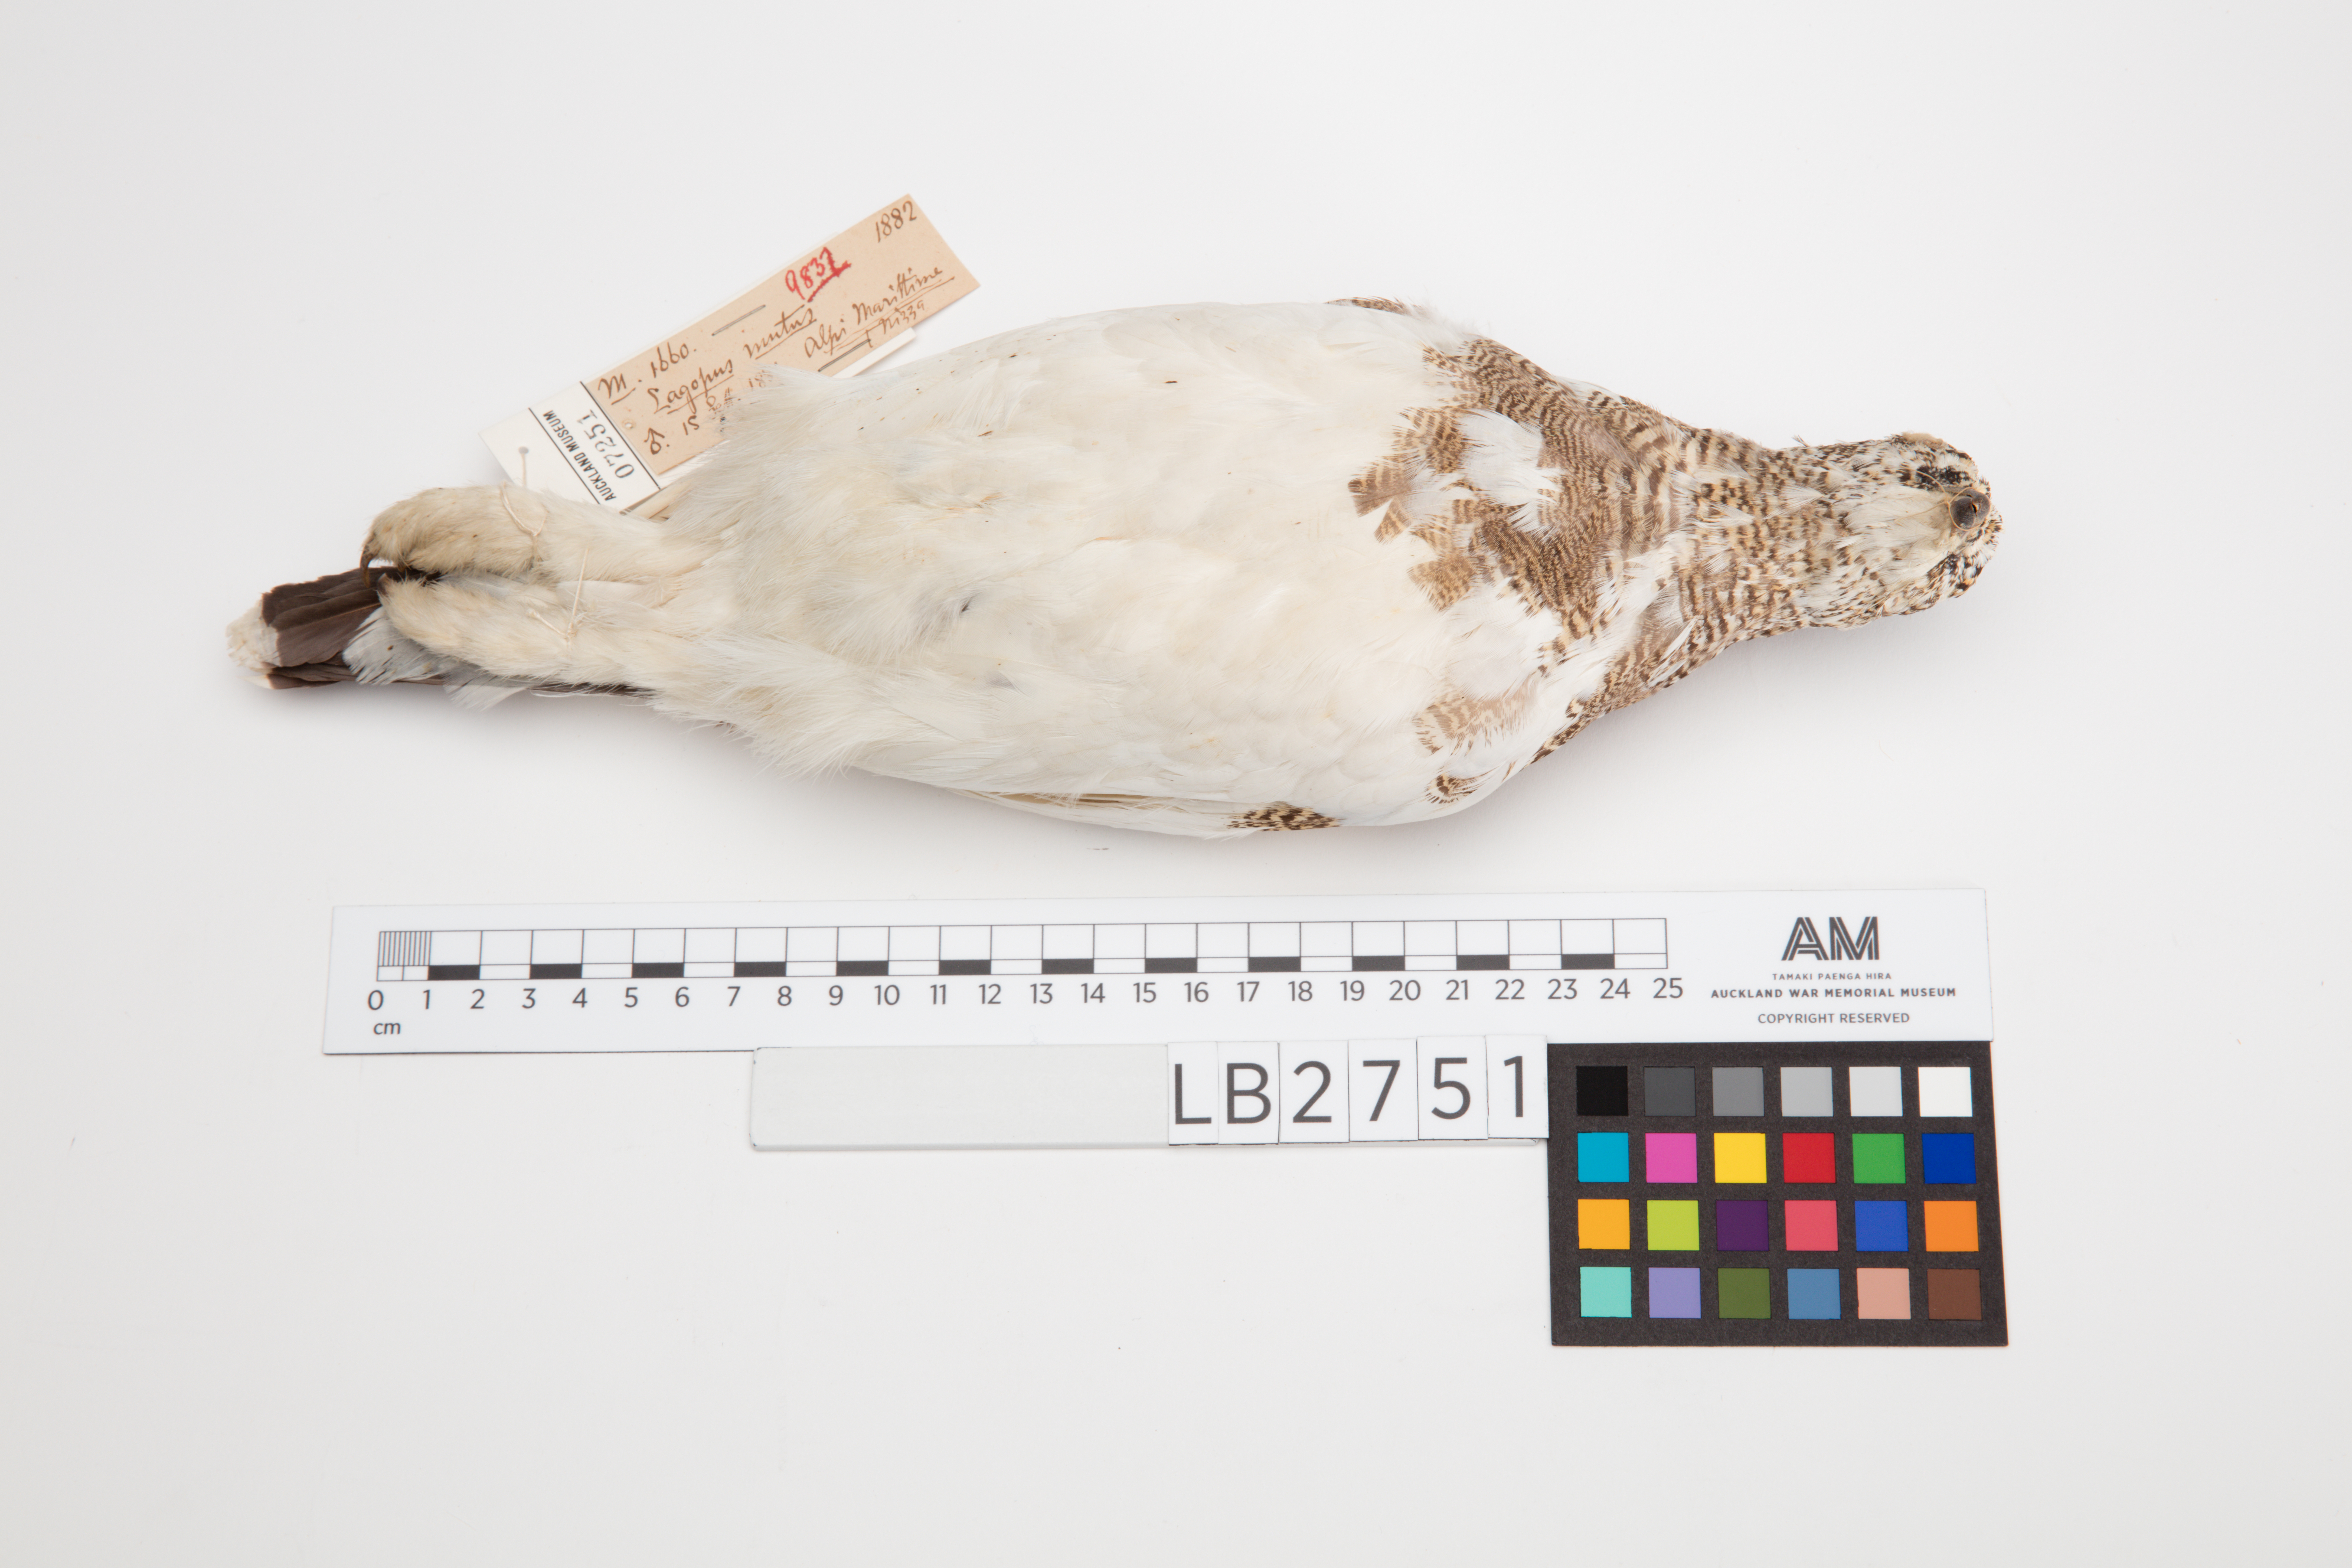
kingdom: Animalia
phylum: Chordata
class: Aves
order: Galliformes
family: Phasianidae
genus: Lagopus
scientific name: Lagopus muta
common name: Rock ptarmigan
